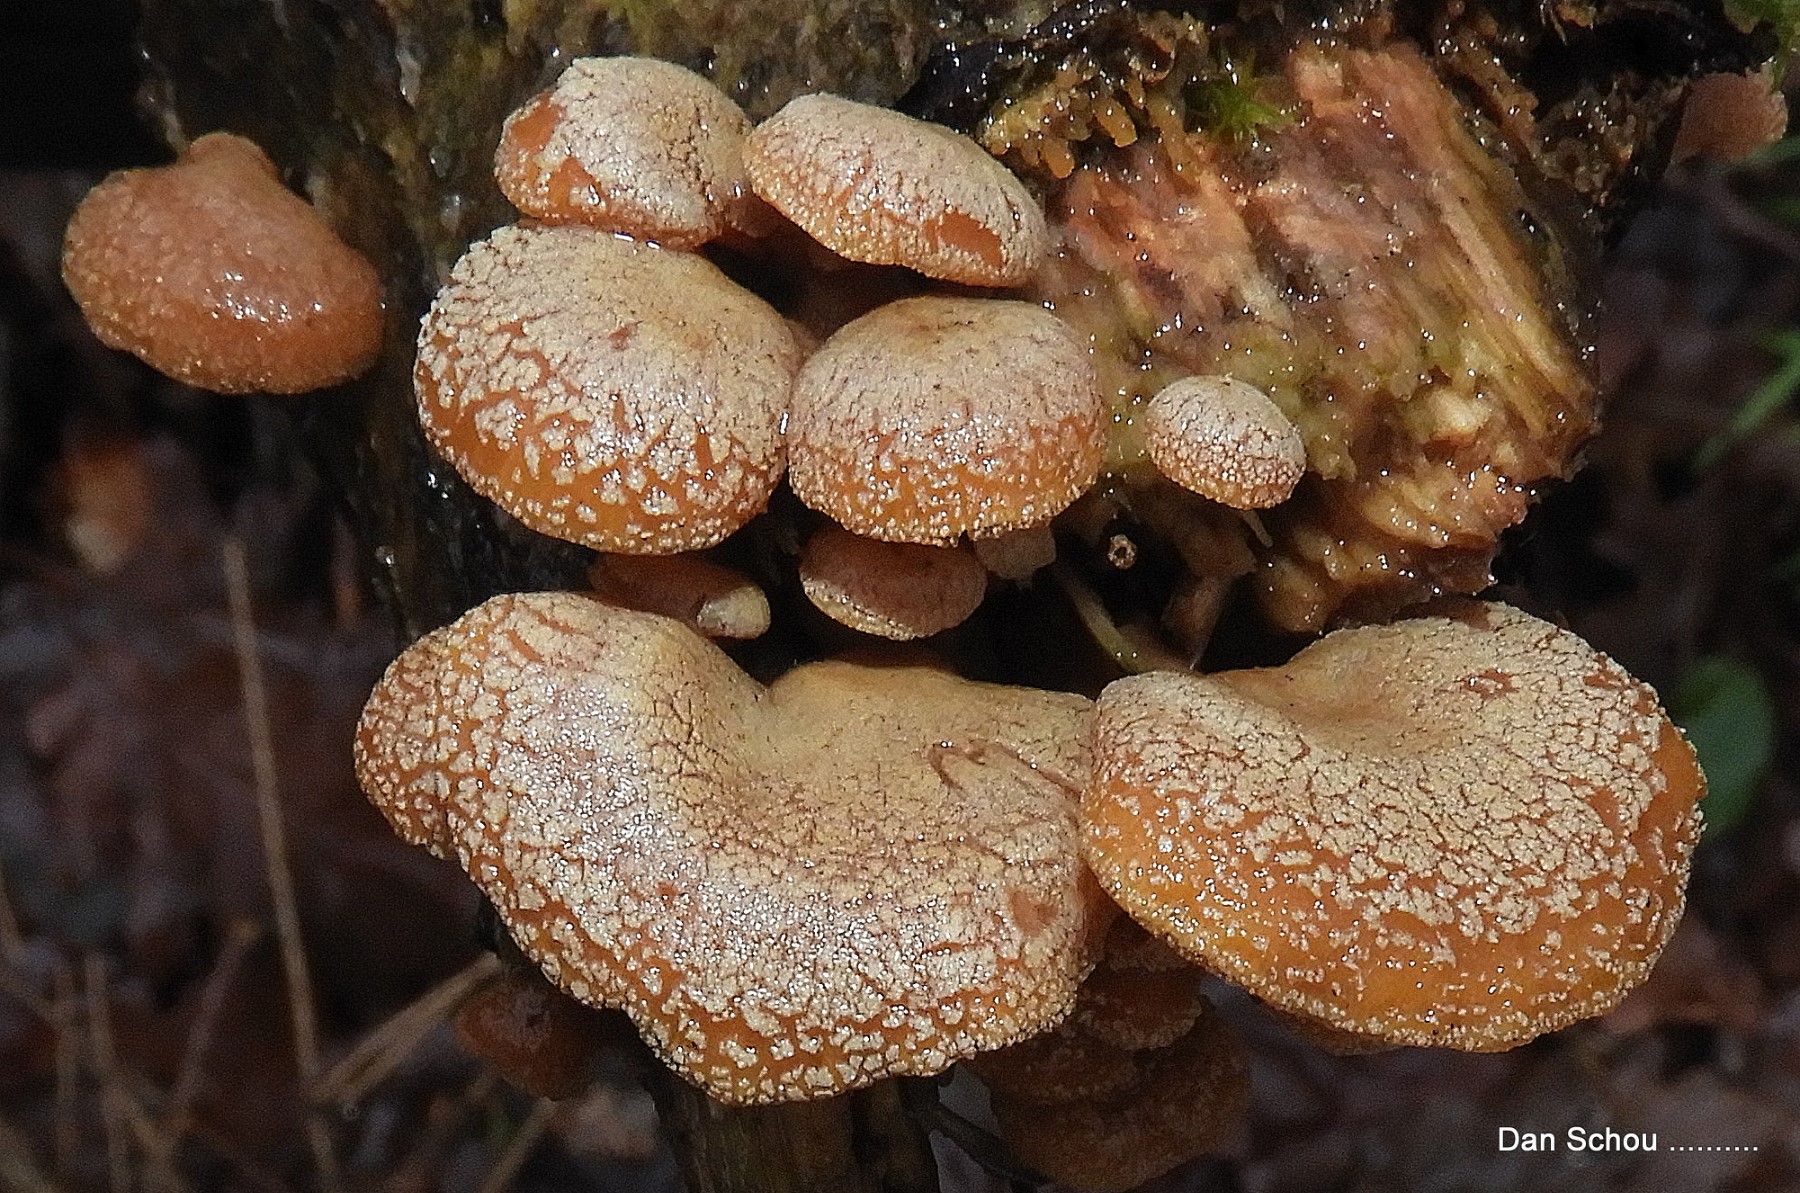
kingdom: Fungi
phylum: Basidiomycota
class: Agaricomycetes
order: Agaricales
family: Mycenaceae
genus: Panellus
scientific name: Panellus stipticus
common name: kliddet epaulethat
